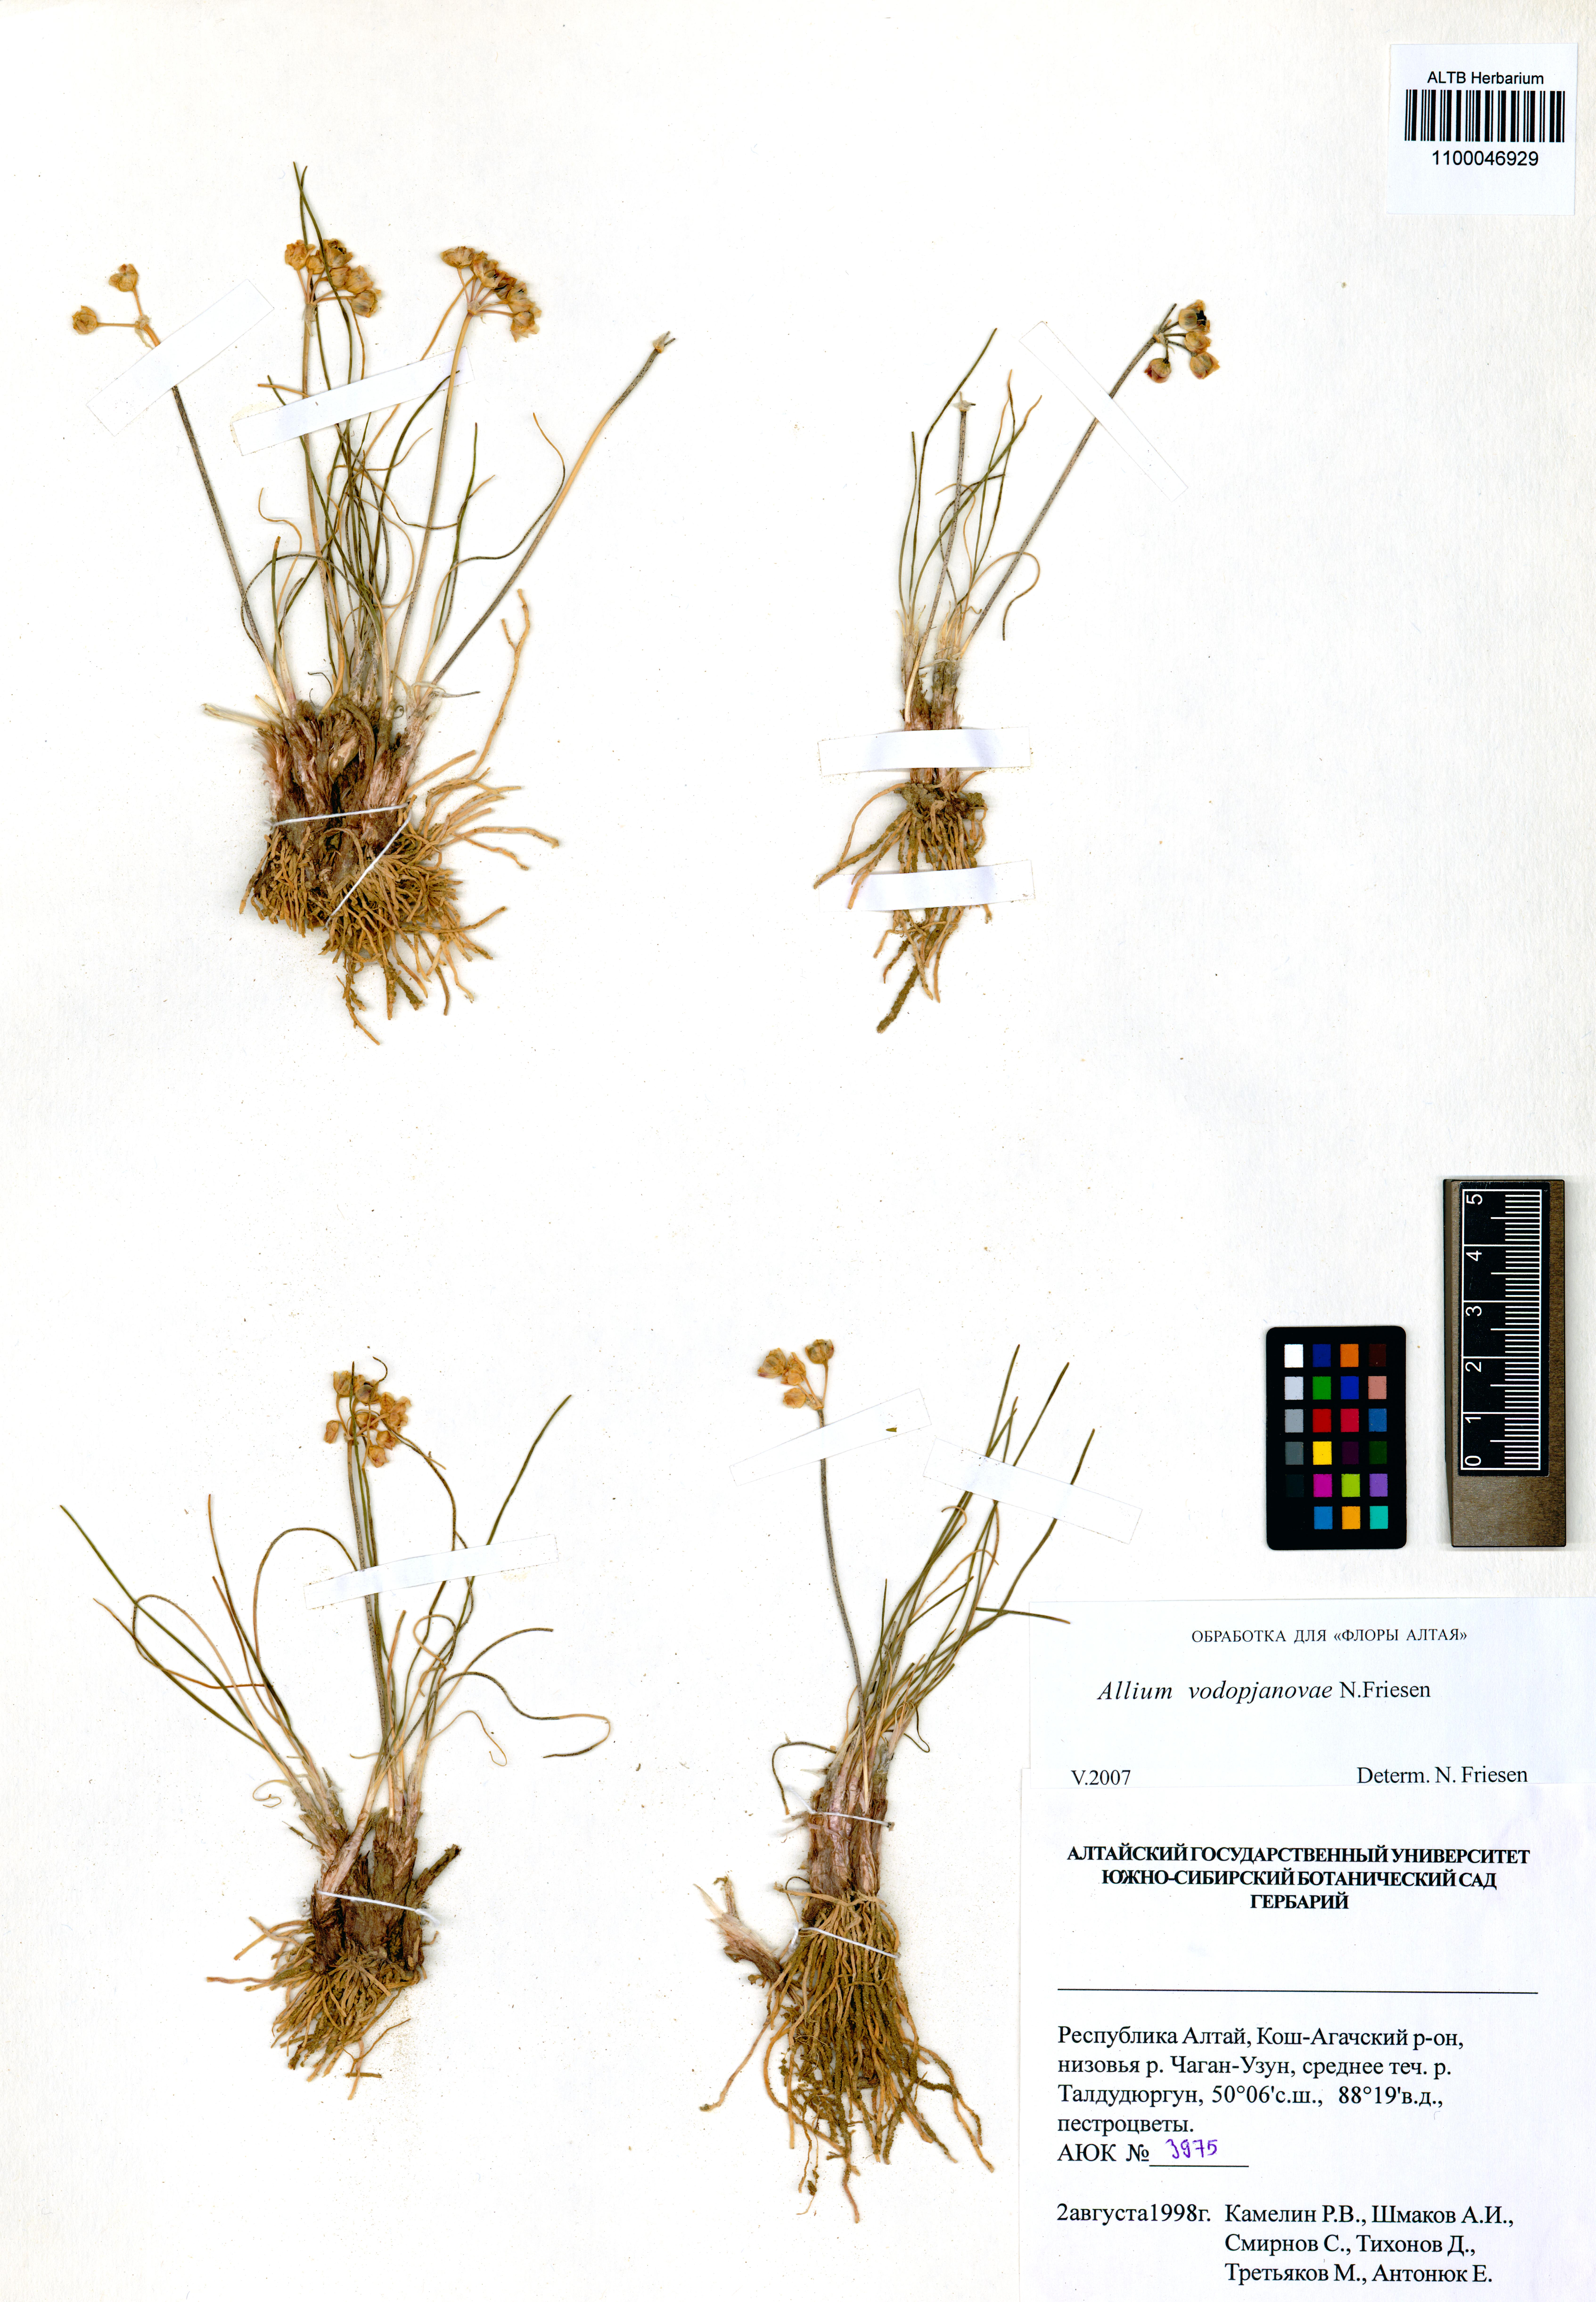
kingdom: Plantae
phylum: Tracheophyta
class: Liliopsida
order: Asparagales
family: Amaryllidaceae
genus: Allium
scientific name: Allium vodopjanovae
